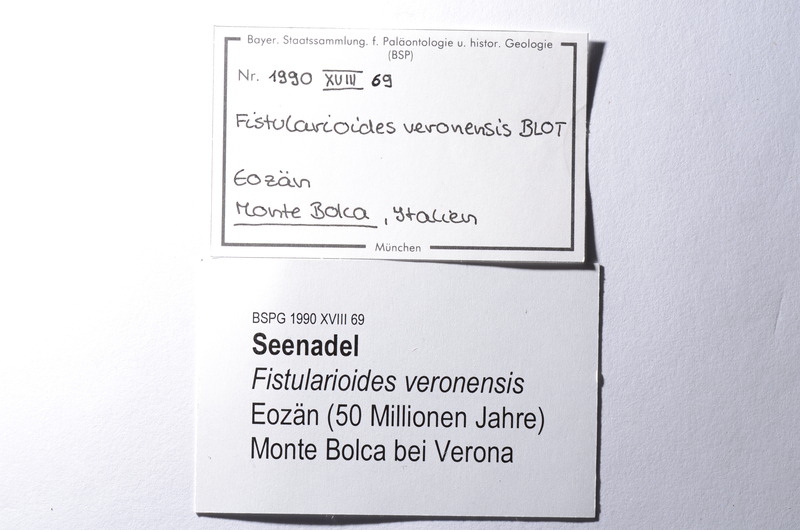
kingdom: Animalia
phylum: Chordata
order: Gasterosteiformes
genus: Fistularioides
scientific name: Fistularioides veronensis
